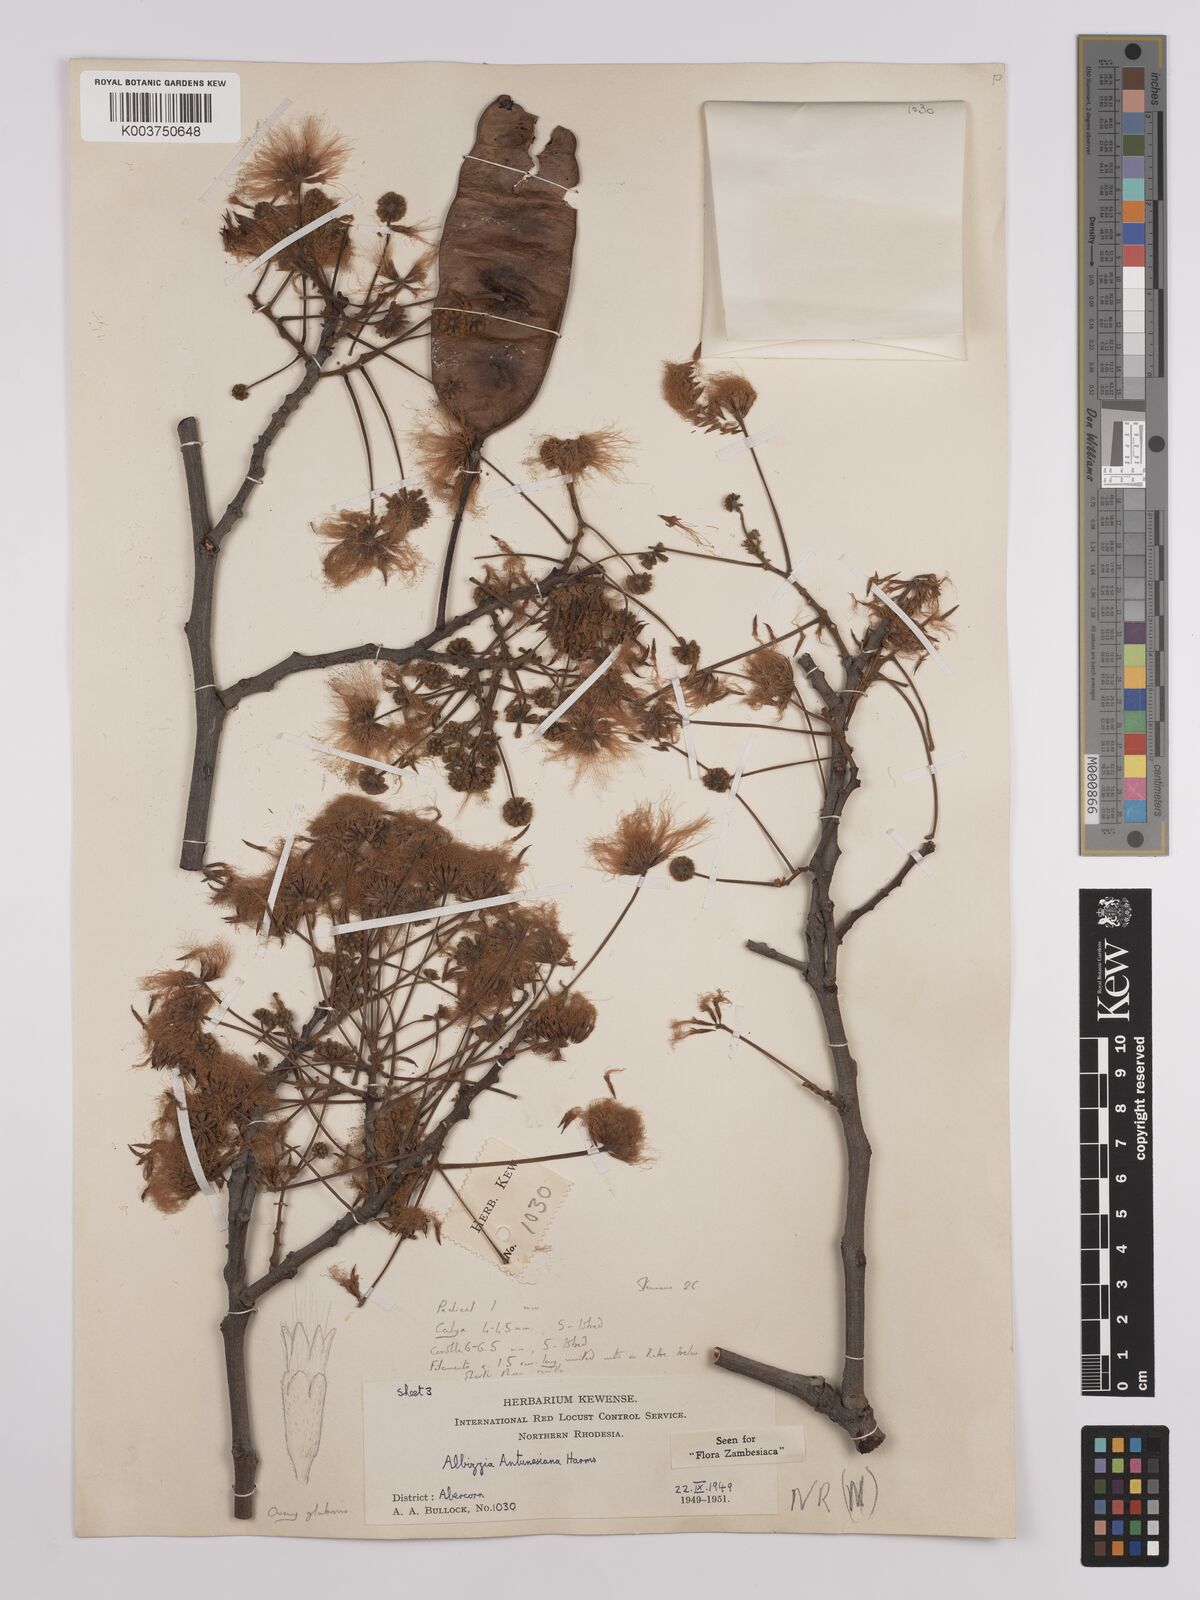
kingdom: Plantae
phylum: Tracheophyta
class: Magnoliopsida
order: Fabales
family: Fabaceae
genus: Albizia
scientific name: Albizia antunesiana
